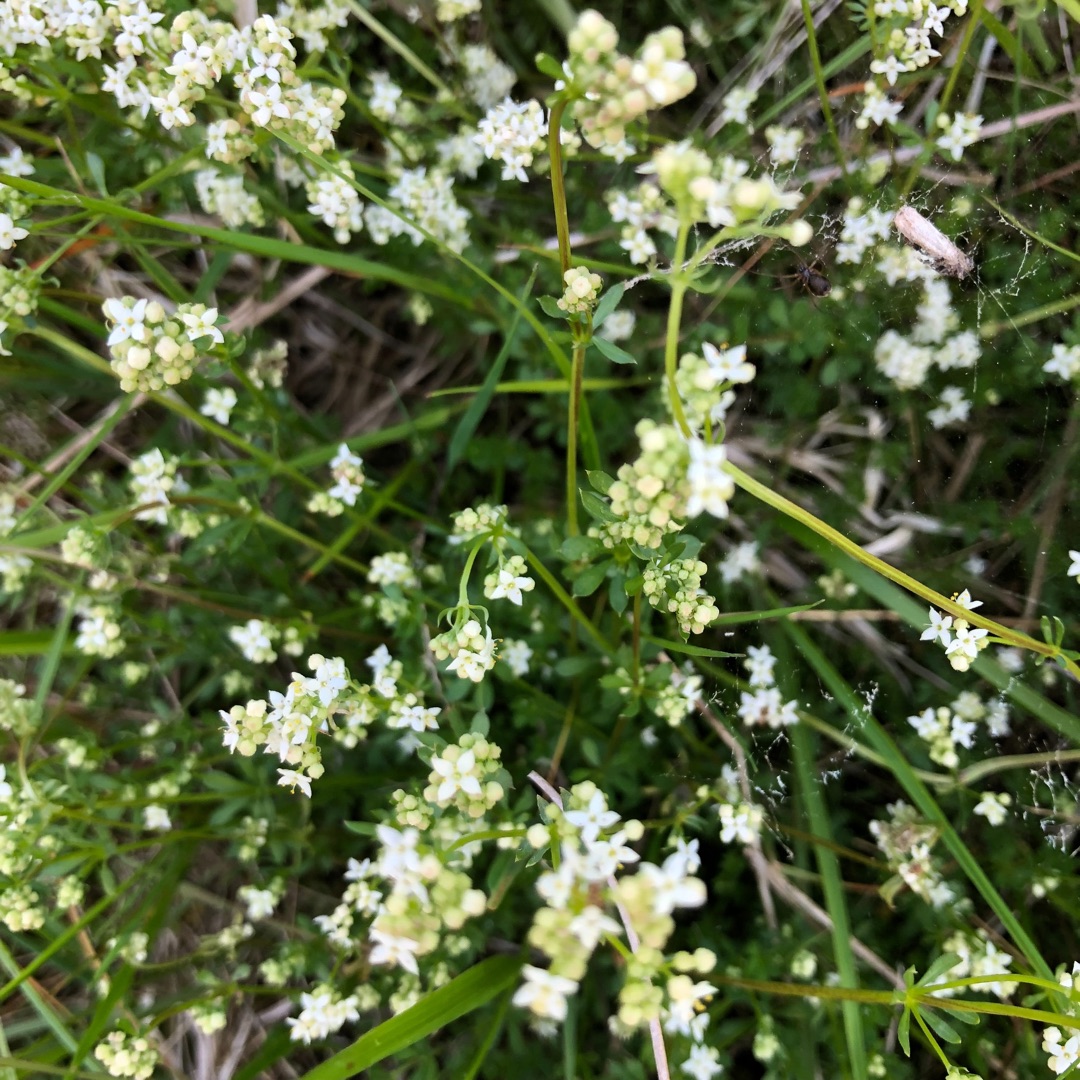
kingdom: Plantae
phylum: Tracheophyta
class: Magnoliopsida
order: Gentianales
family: Rubiaceae
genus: Galium
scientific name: Galium saxatile
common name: Lyng-snerre
